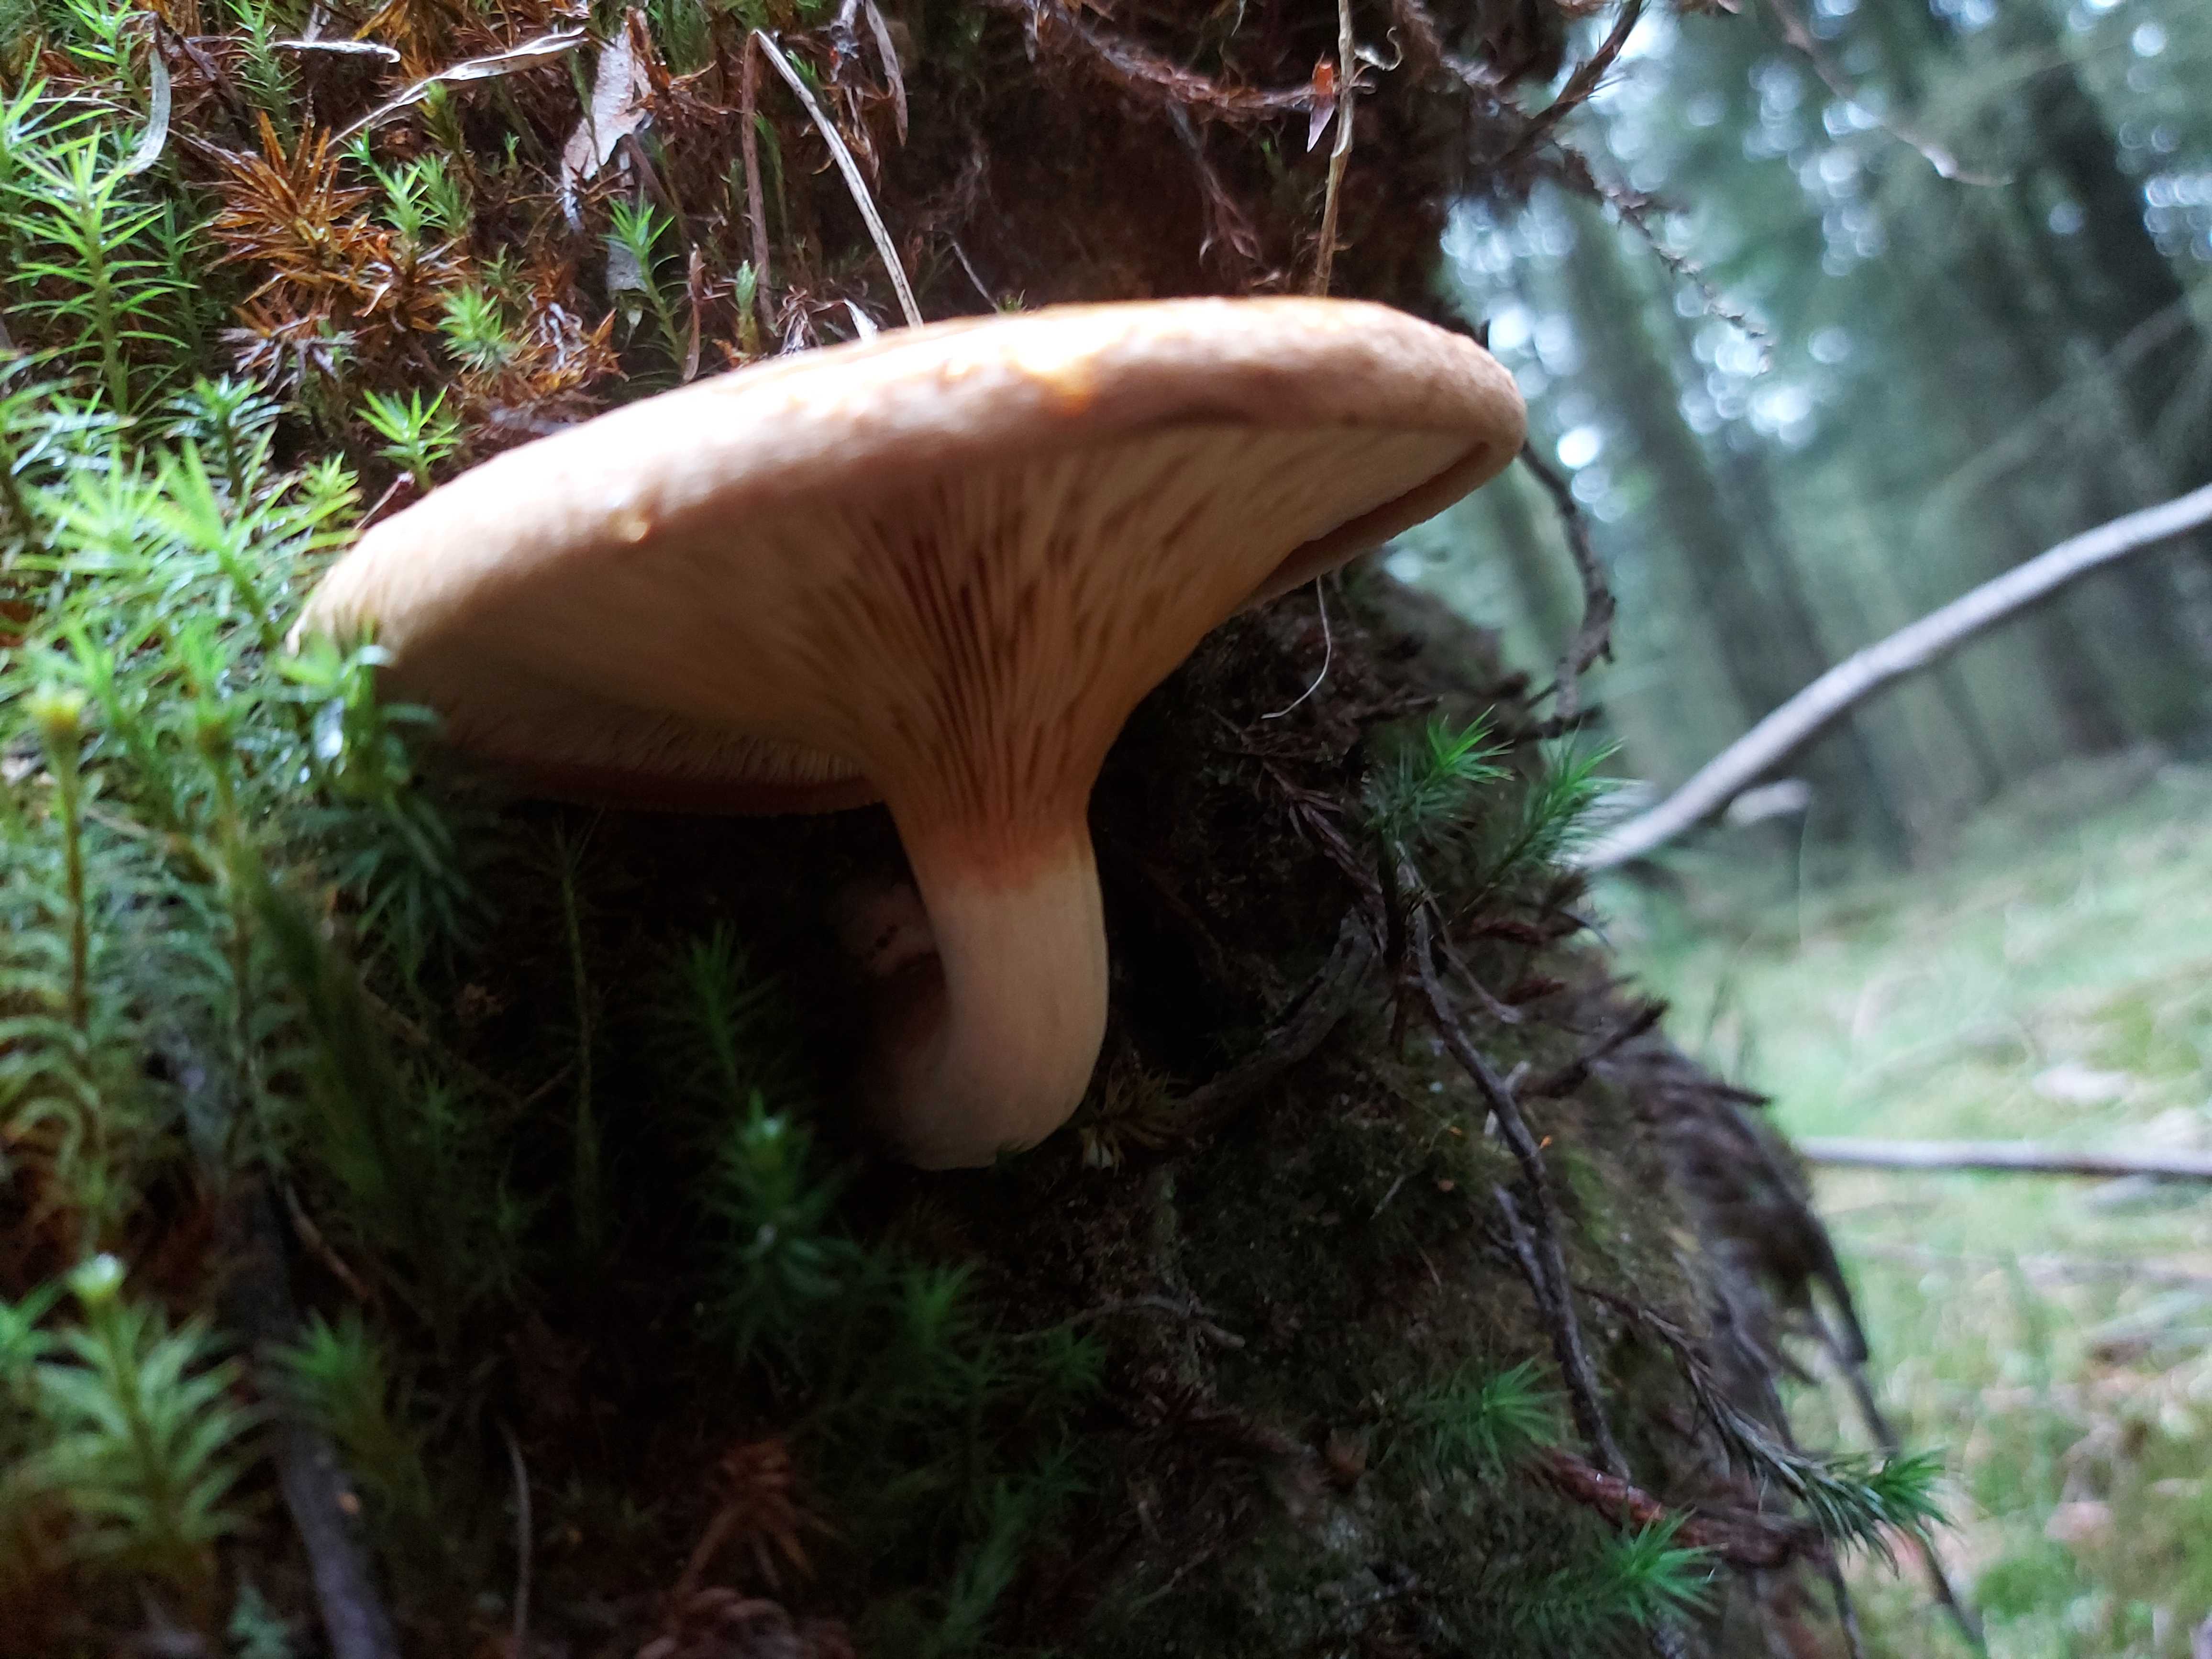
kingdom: Fungi
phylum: Basidiomycota
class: Agaricomycetes
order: Boletales
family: Paxillaceae
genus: Paxillus
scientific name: Paxillus involutus
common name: almindelig netbladhat
